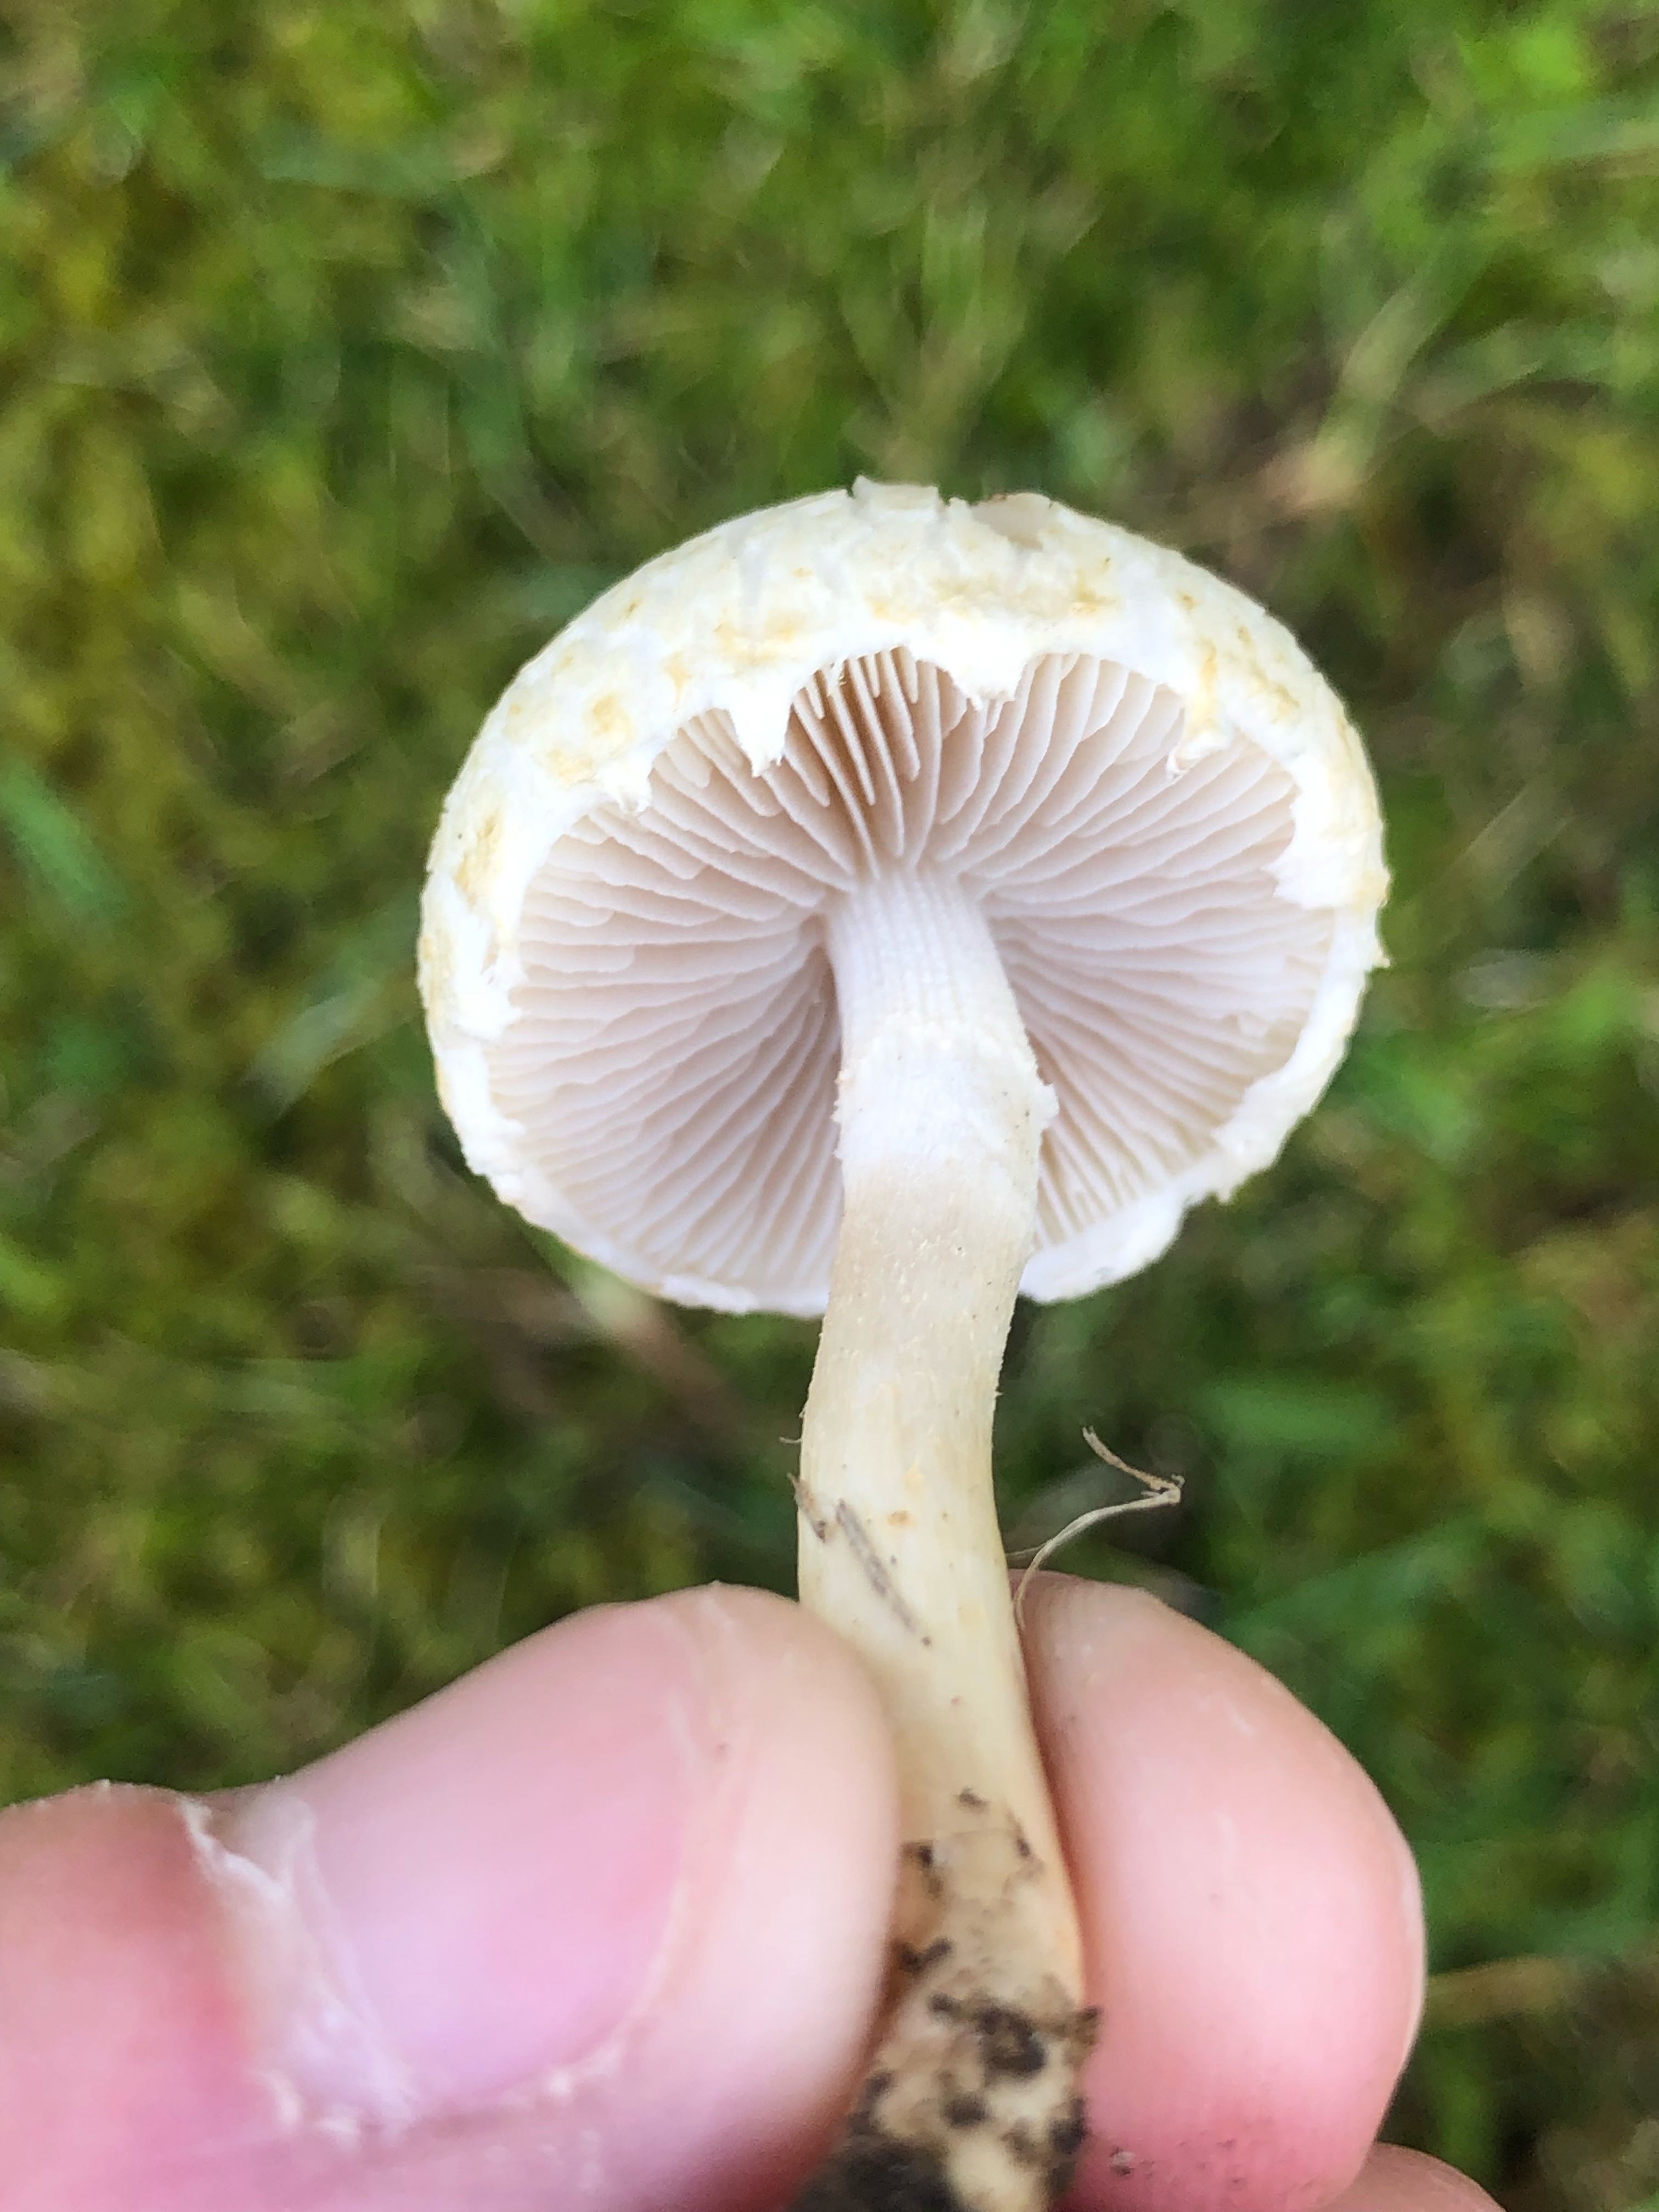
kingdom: Fungi
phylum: Basidiomycota
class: Agaricomycetes
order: Agaricales
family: Strophariaceae
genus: Agrocybe
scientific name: Agrocybe dura
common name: fastkødet agerhat
